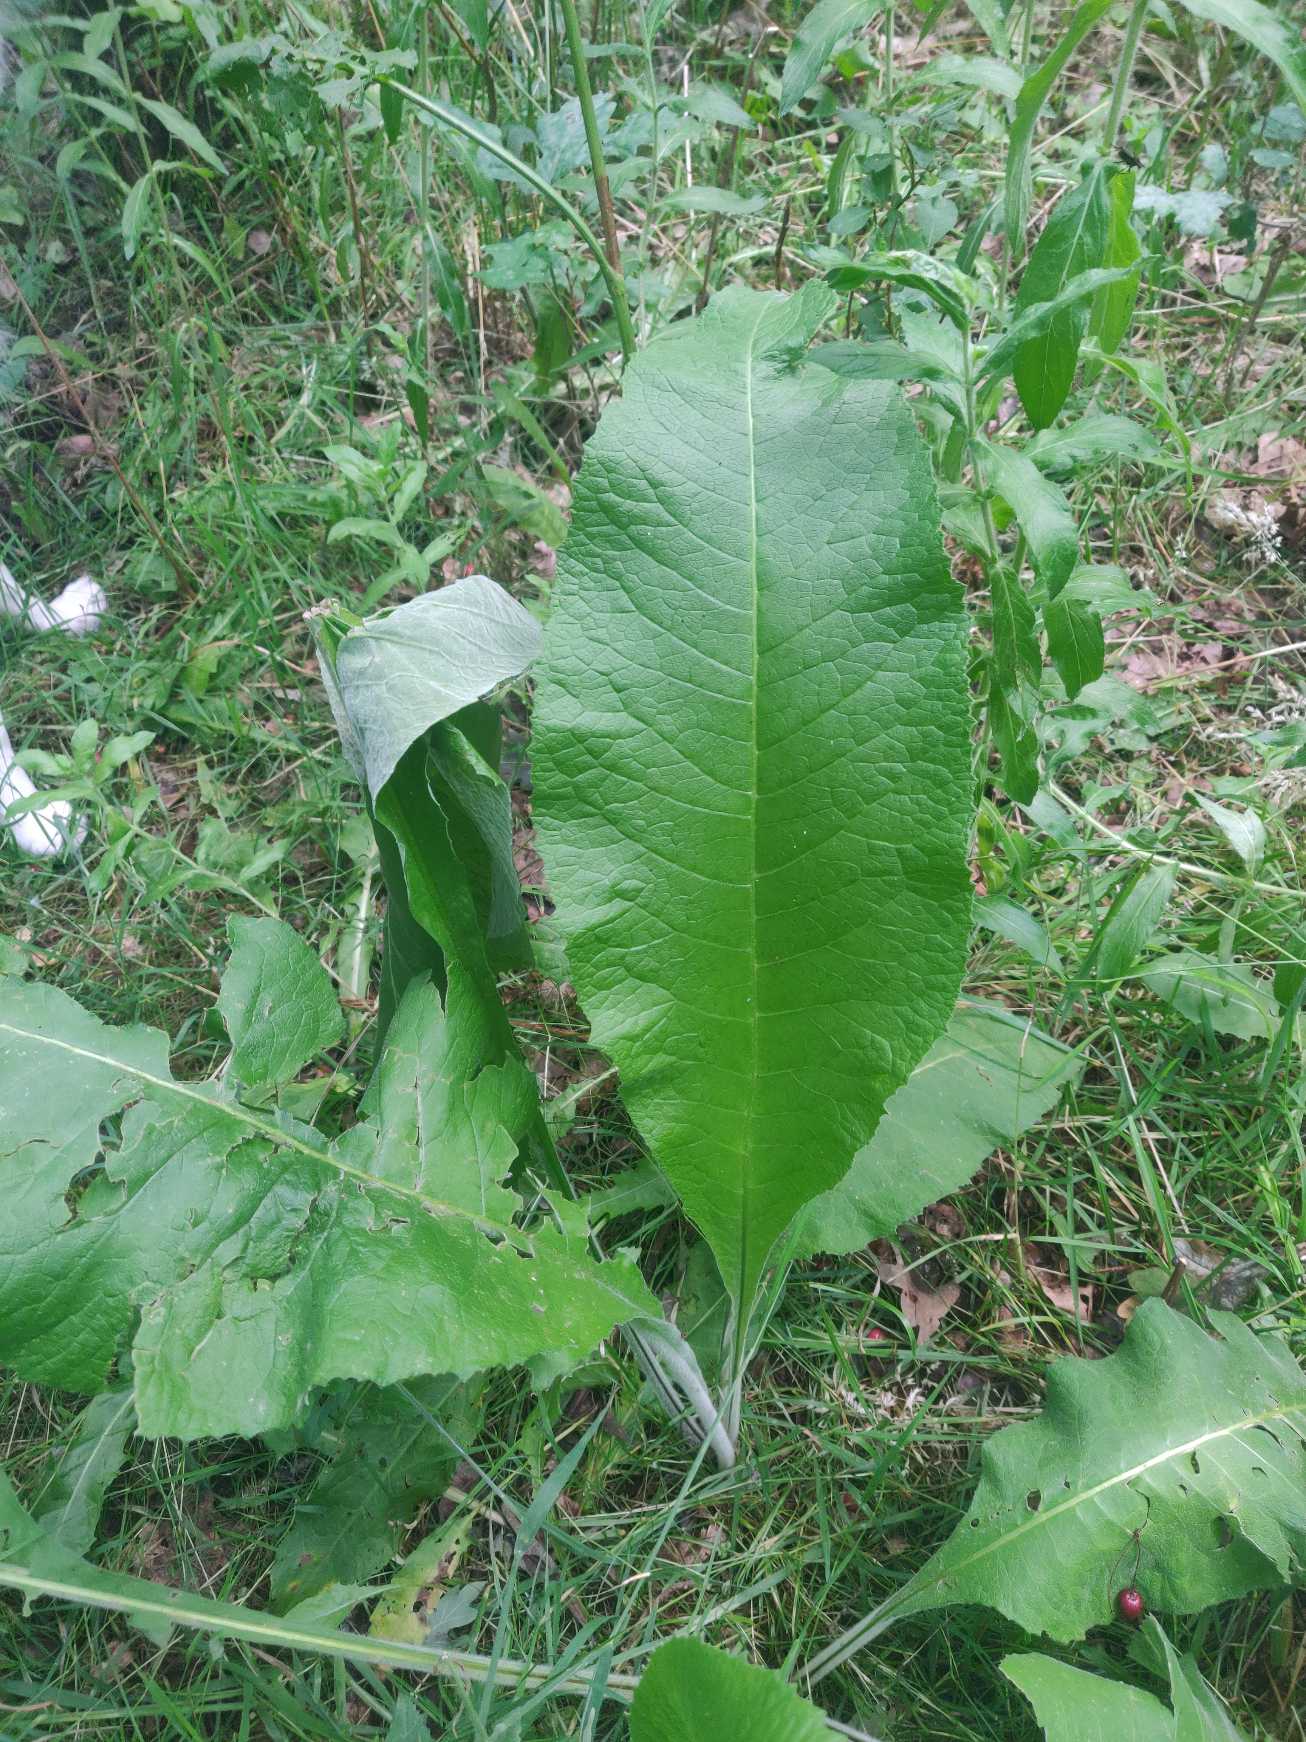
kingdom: Plantae
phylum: Tracheophyta
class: Magnoliopsida
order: Asterales
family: Asteraceae
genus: Inula
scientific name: Inula helenium
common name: Læge-alant
